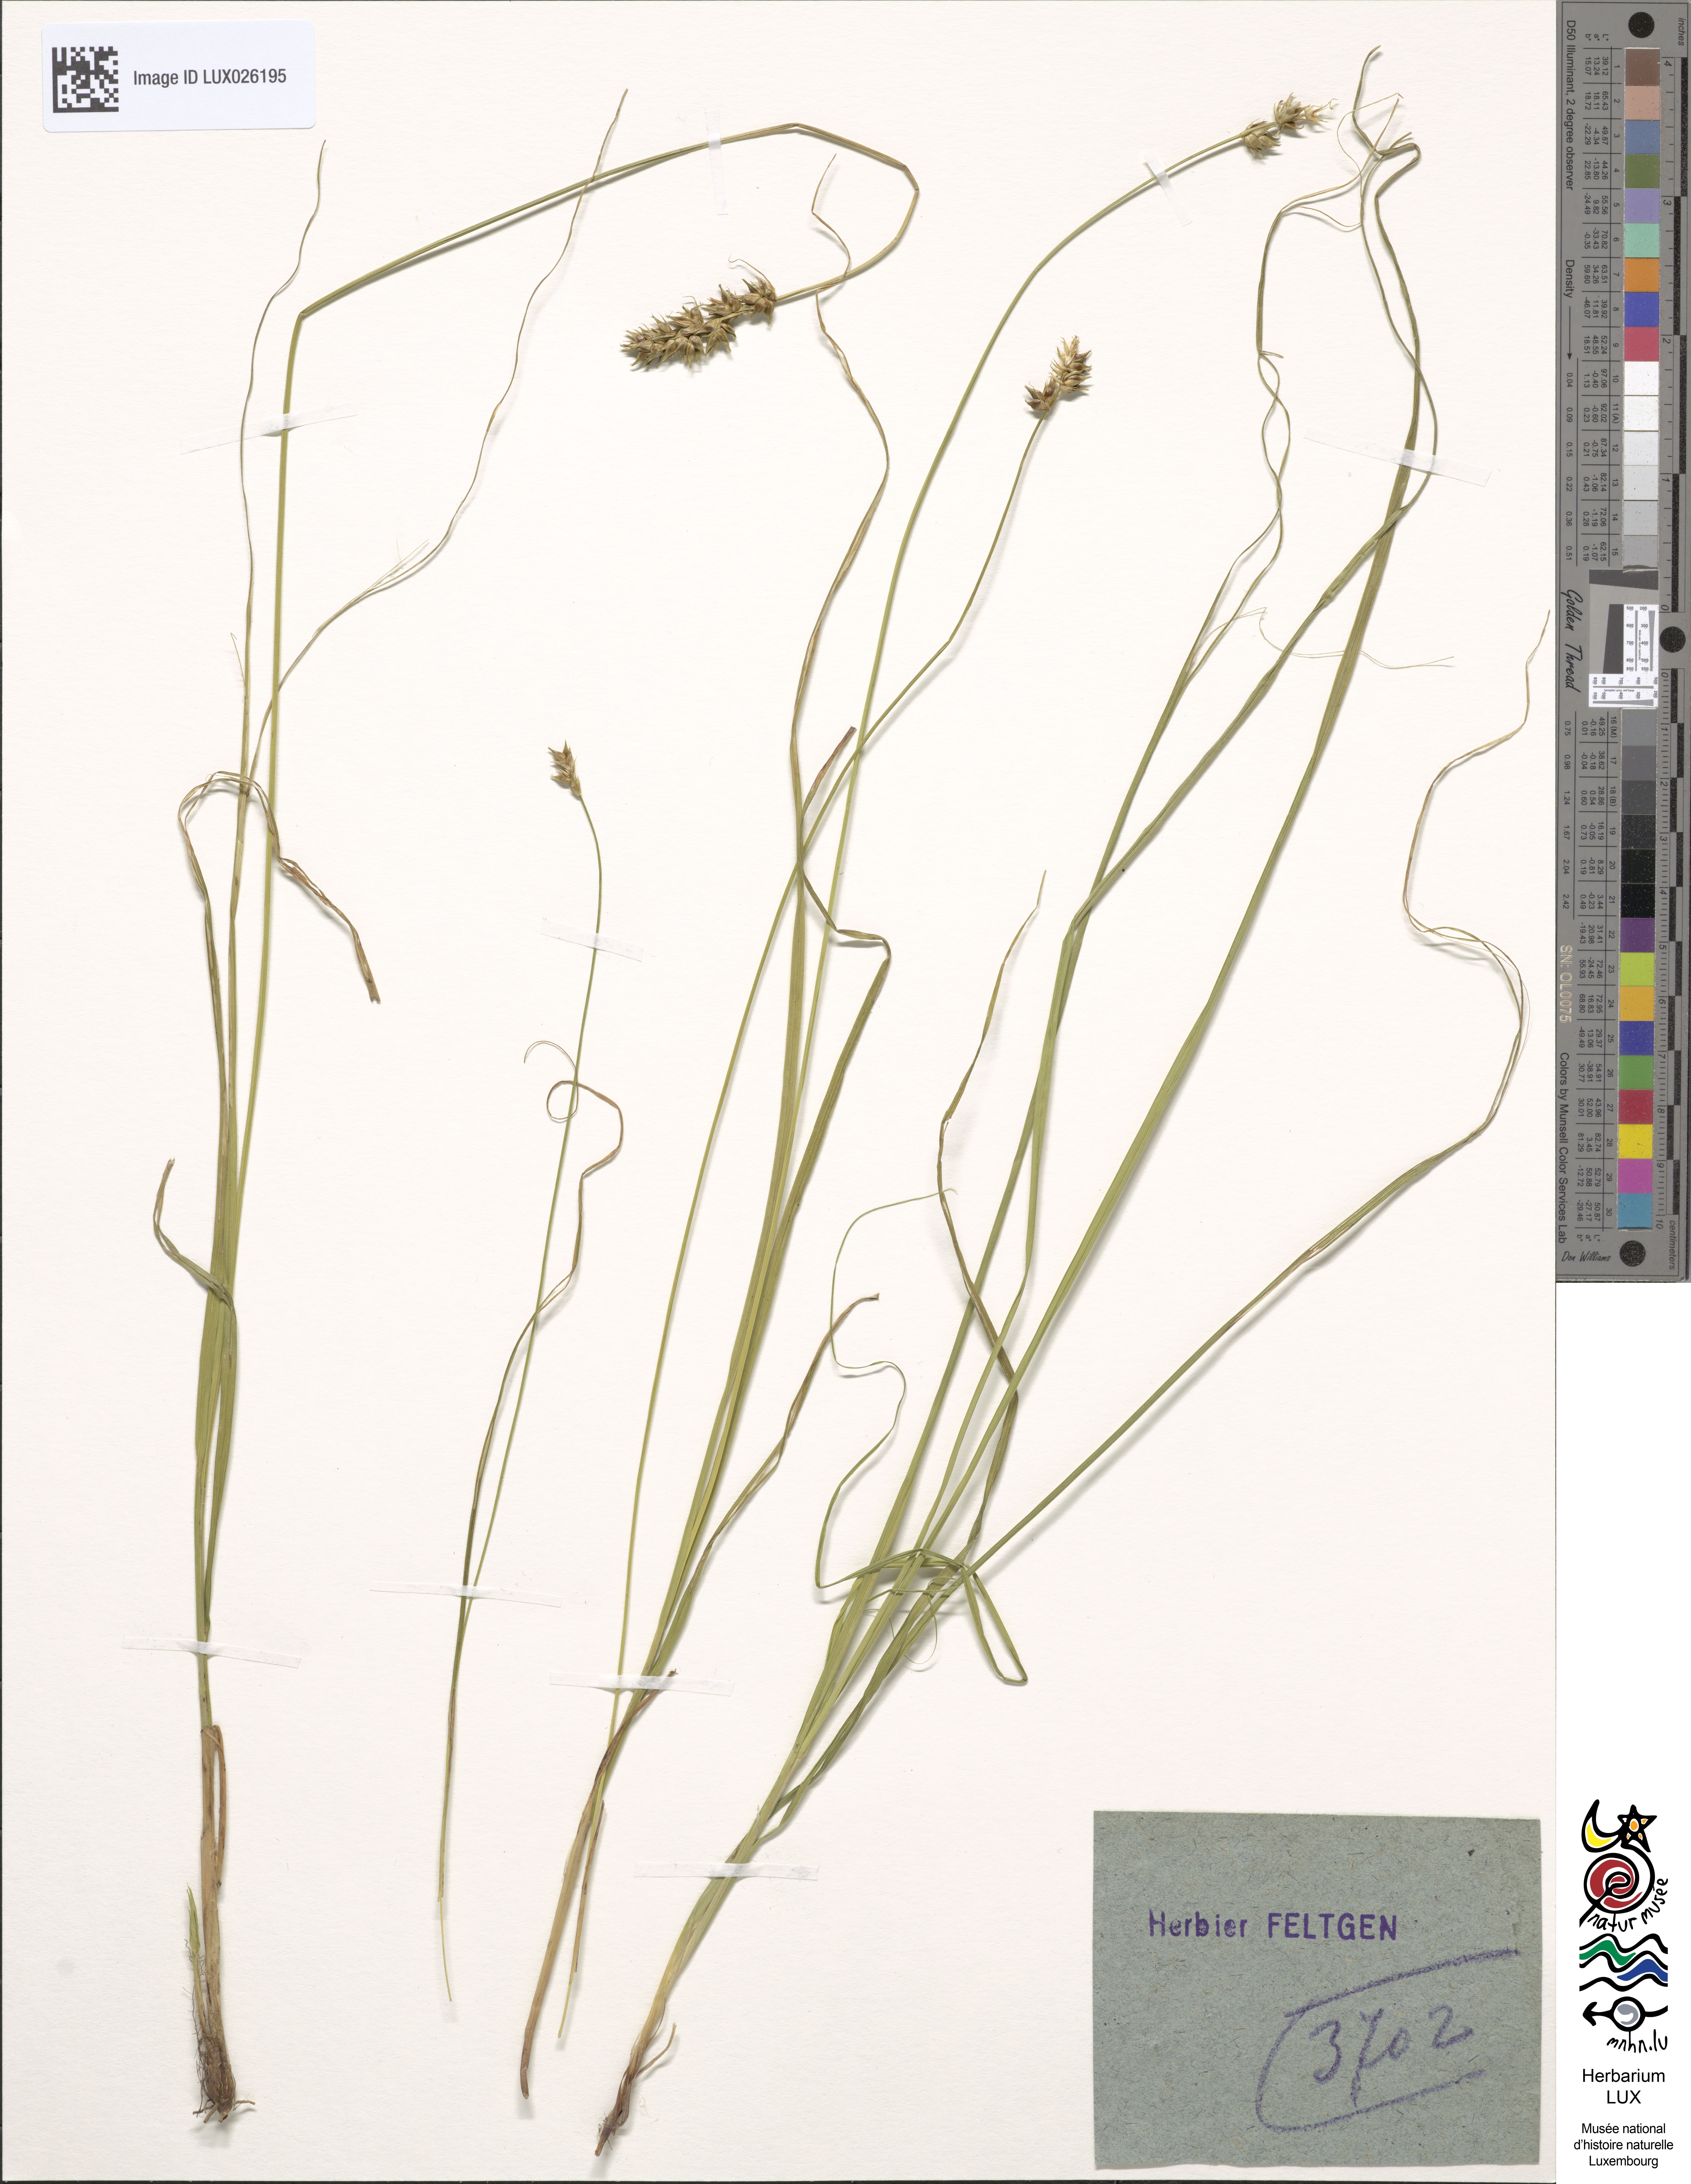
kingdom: Plantae
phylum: Tracheophyta
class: Liliopsida
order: Poales
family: Cyperaceae
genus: Carex
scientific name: Carex spicata
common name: Spiked sedge
